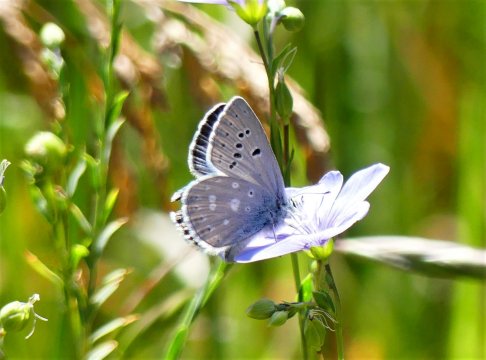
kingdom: Animalia
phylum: Arthropoda
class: Insecta
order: Lepidoptera
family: Lycaenidae
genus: Icaricia
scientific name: Icaricia icarioides
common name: Boisduval's Blue
